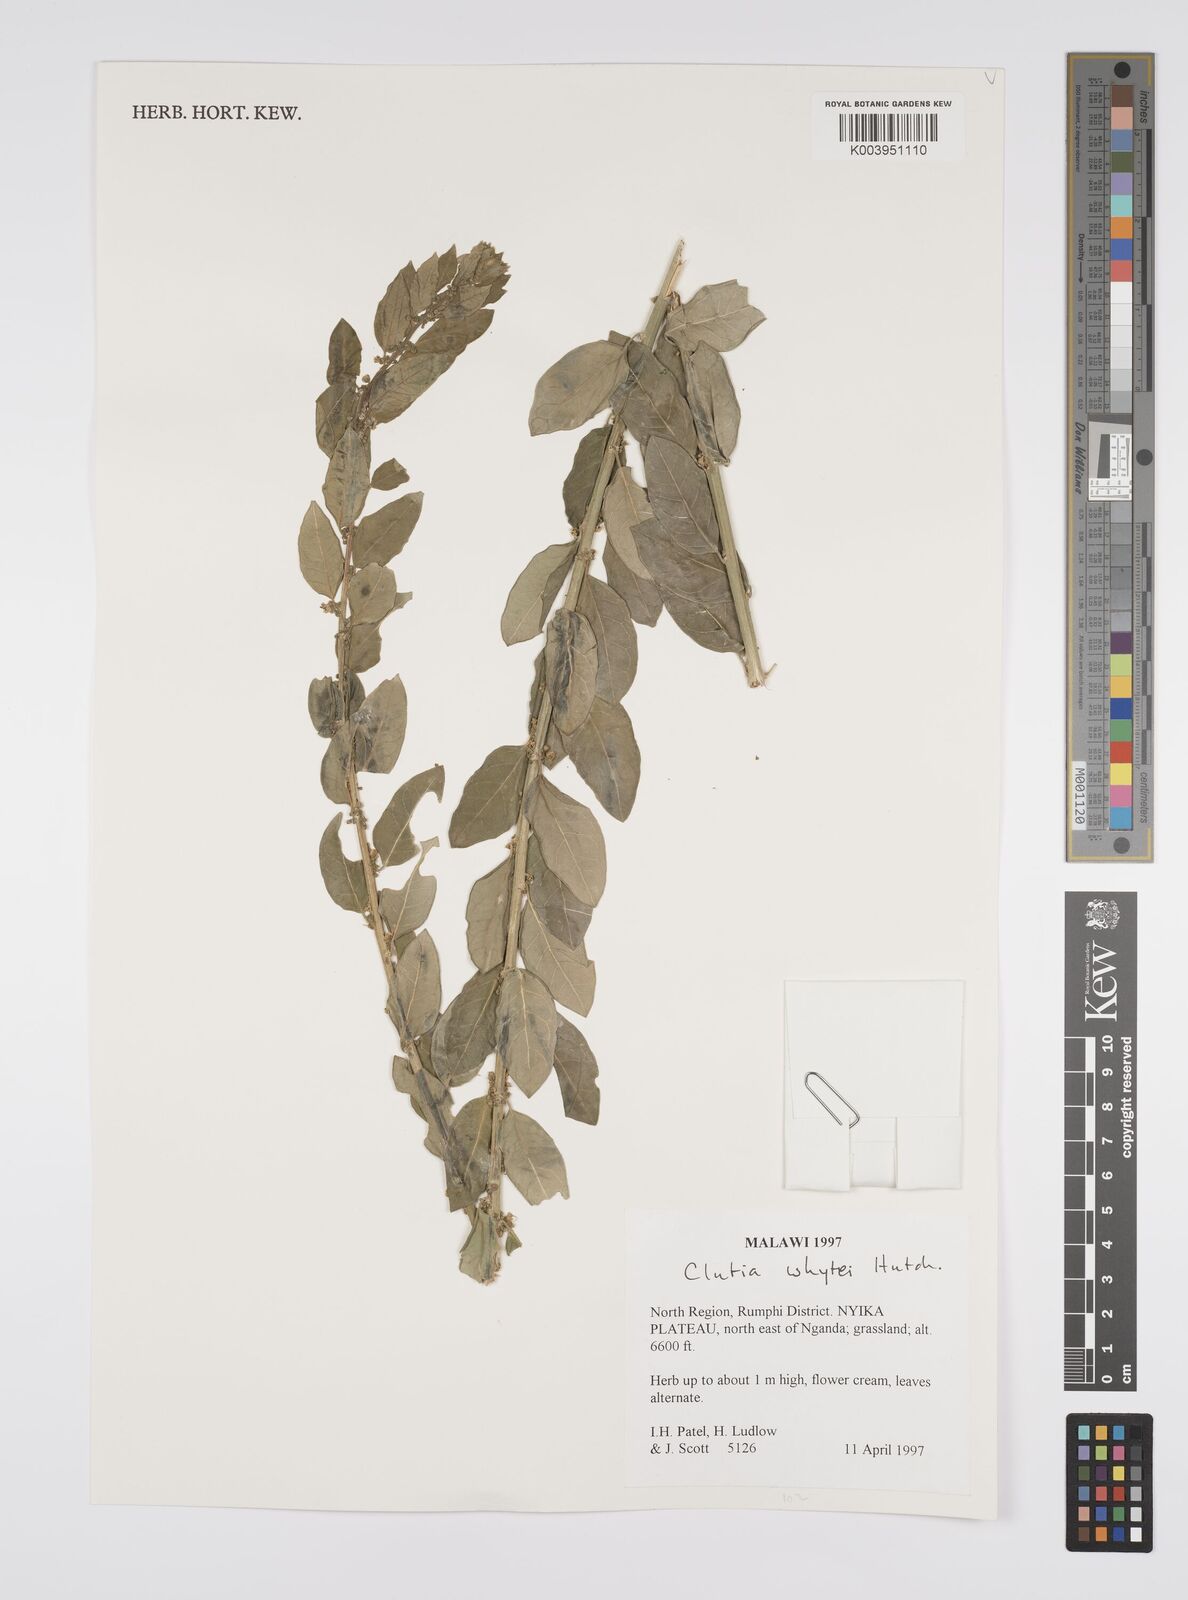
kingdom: Plantae
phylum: Tracheophyta
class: Magnoliopsida
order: Malpighiales
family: Peraceae
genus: Clutia
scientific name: Clutia
